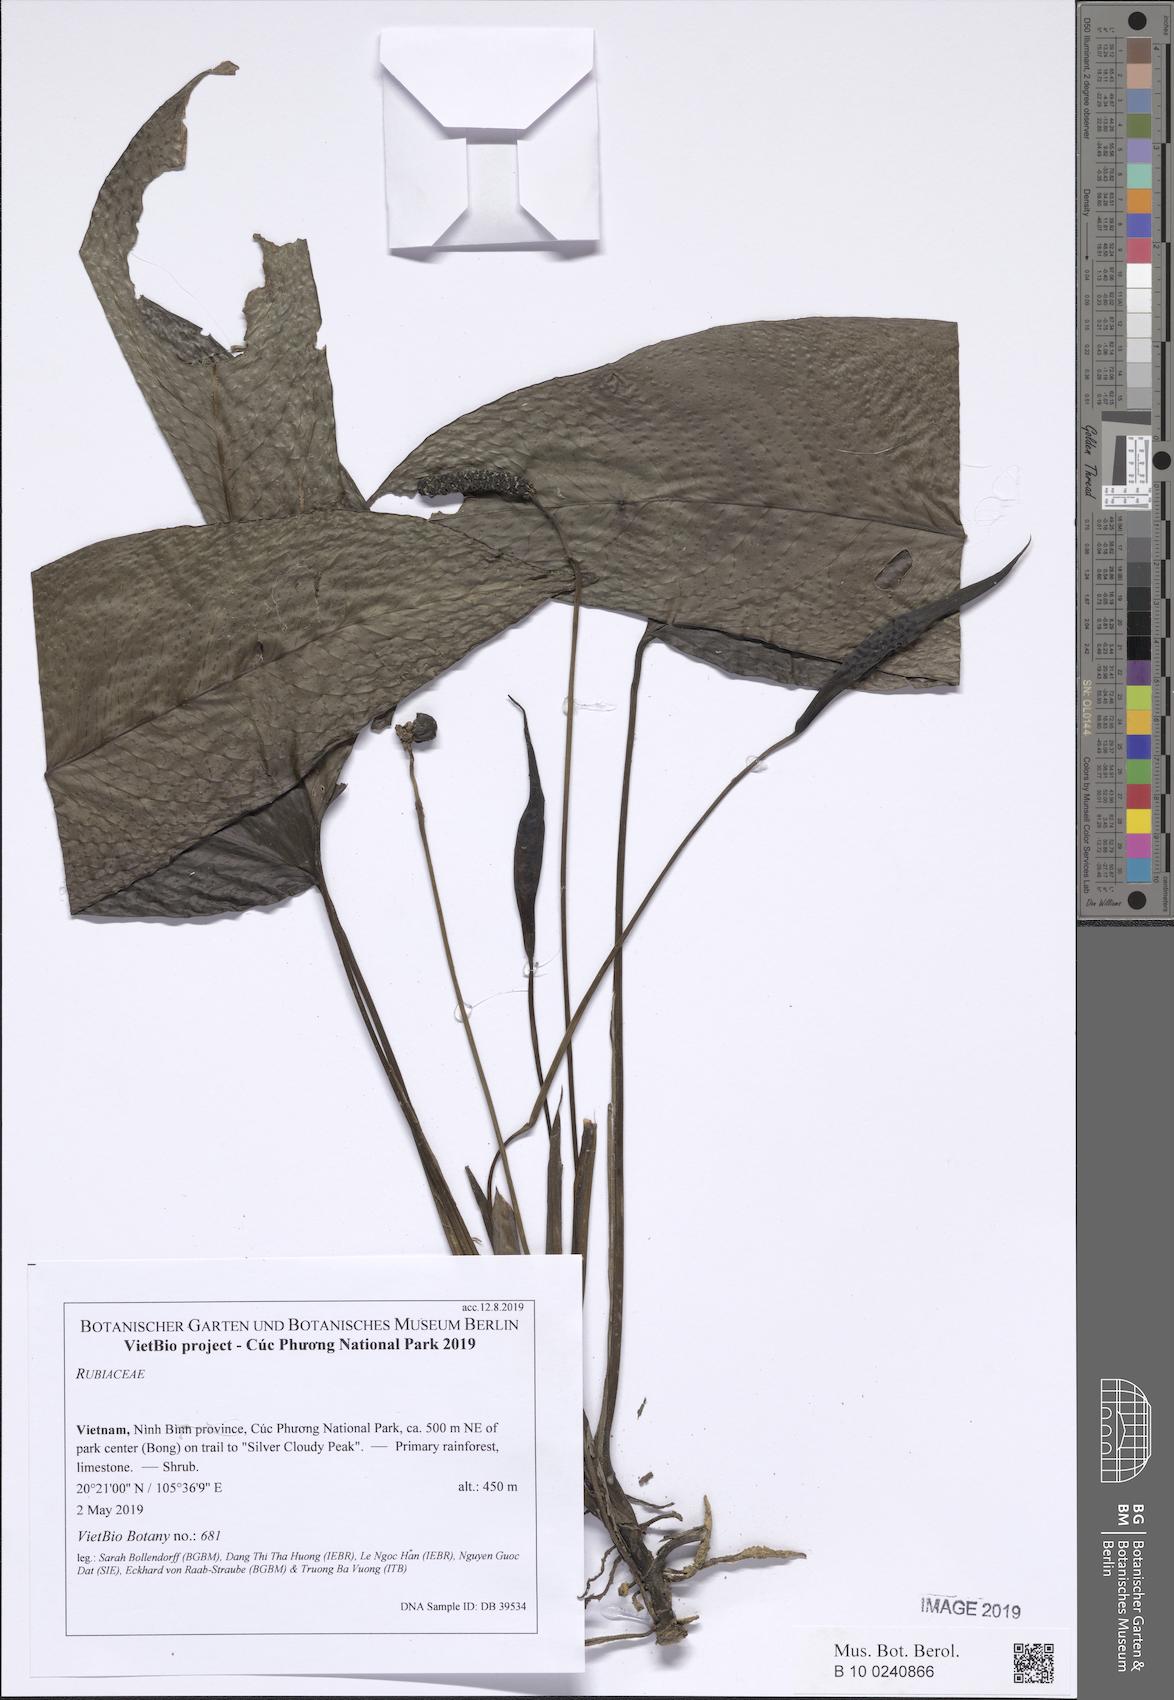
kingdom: Plantae
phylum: Tracheophyta
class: Liliopsida
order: Alismatales
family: Araceae
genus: Anadendrum
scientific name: Anadendrum latifolium
